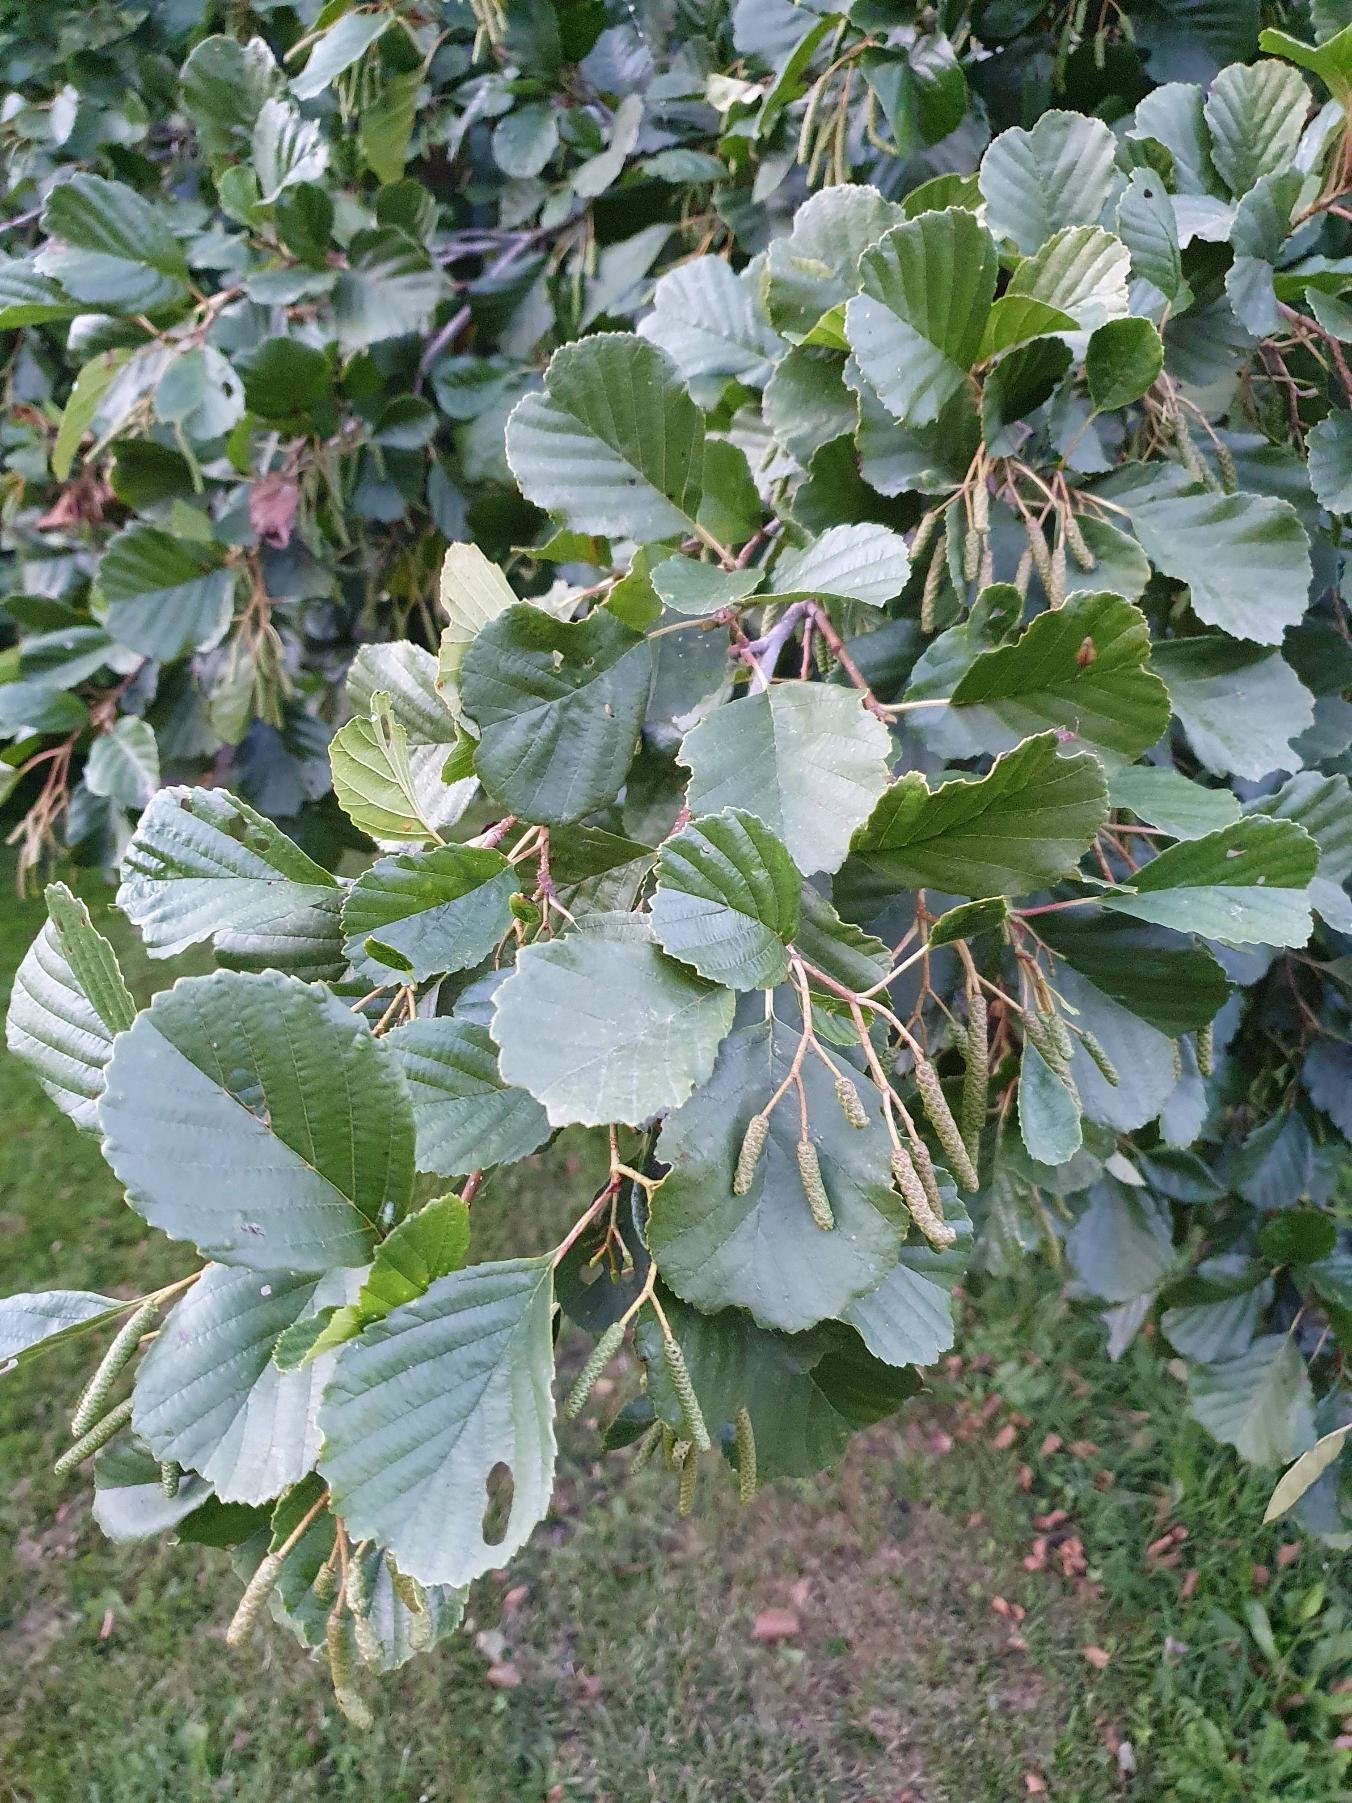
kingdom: Plantae
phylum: Tracheophyta
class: Magnoliopsida
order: Fagales
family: Betulaceae
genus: Alnus
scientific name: Alnus glutinosa
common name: Rød-el
